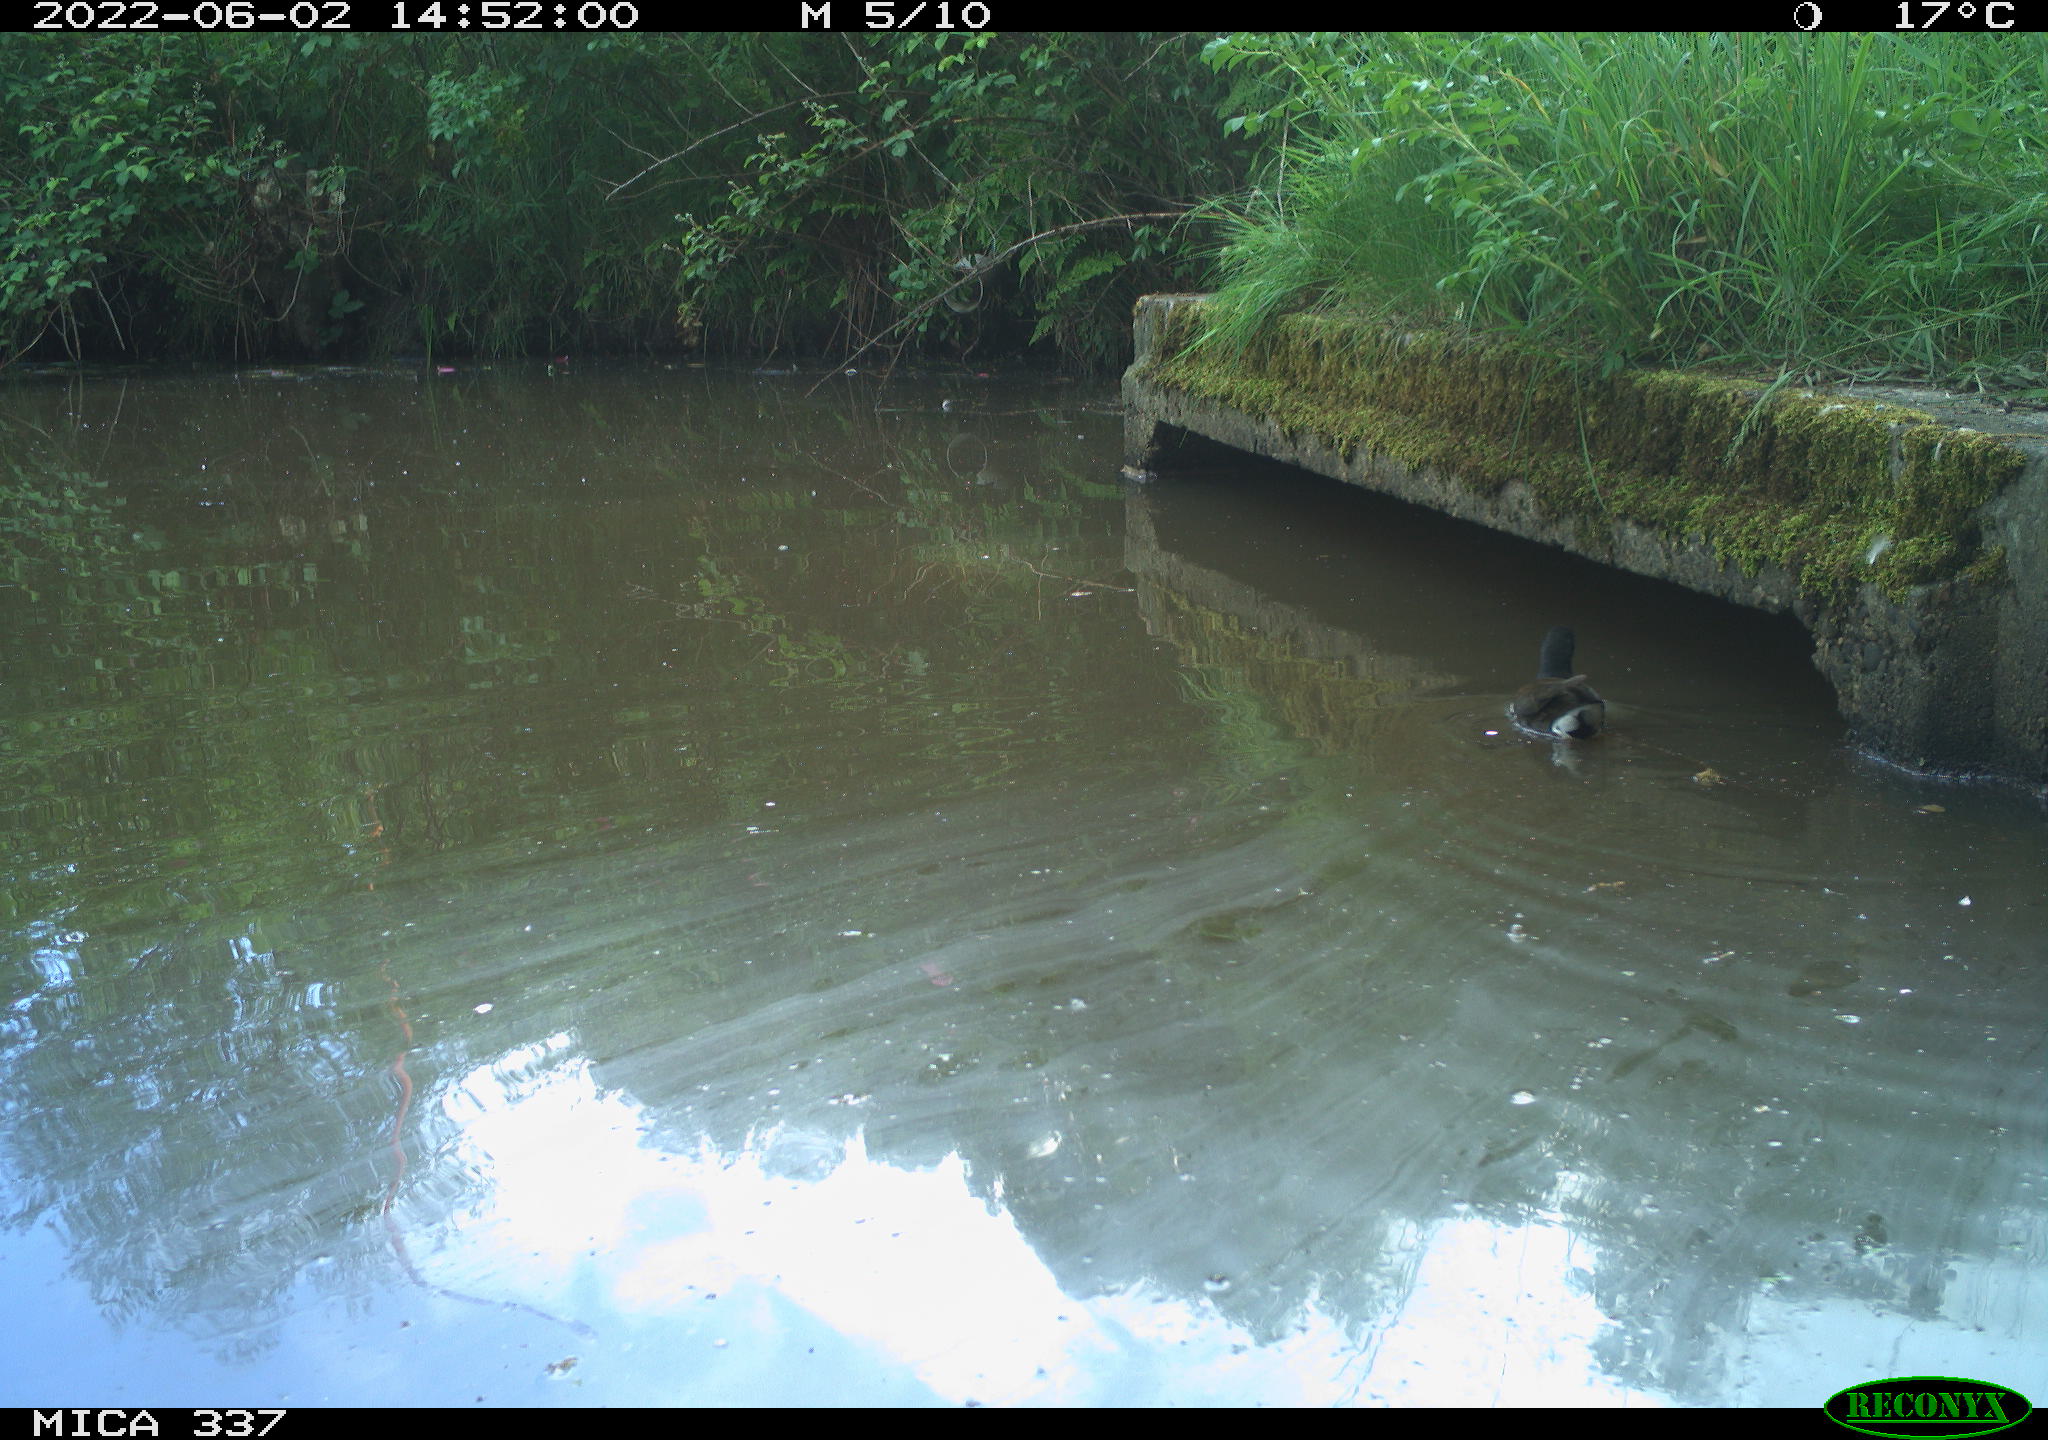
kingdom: Animalia
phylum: Chordata
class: Aves
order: Gruiformes
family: Rallidae
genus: Gallinula
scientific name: Gallinula chloropus
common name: Common moorhen
